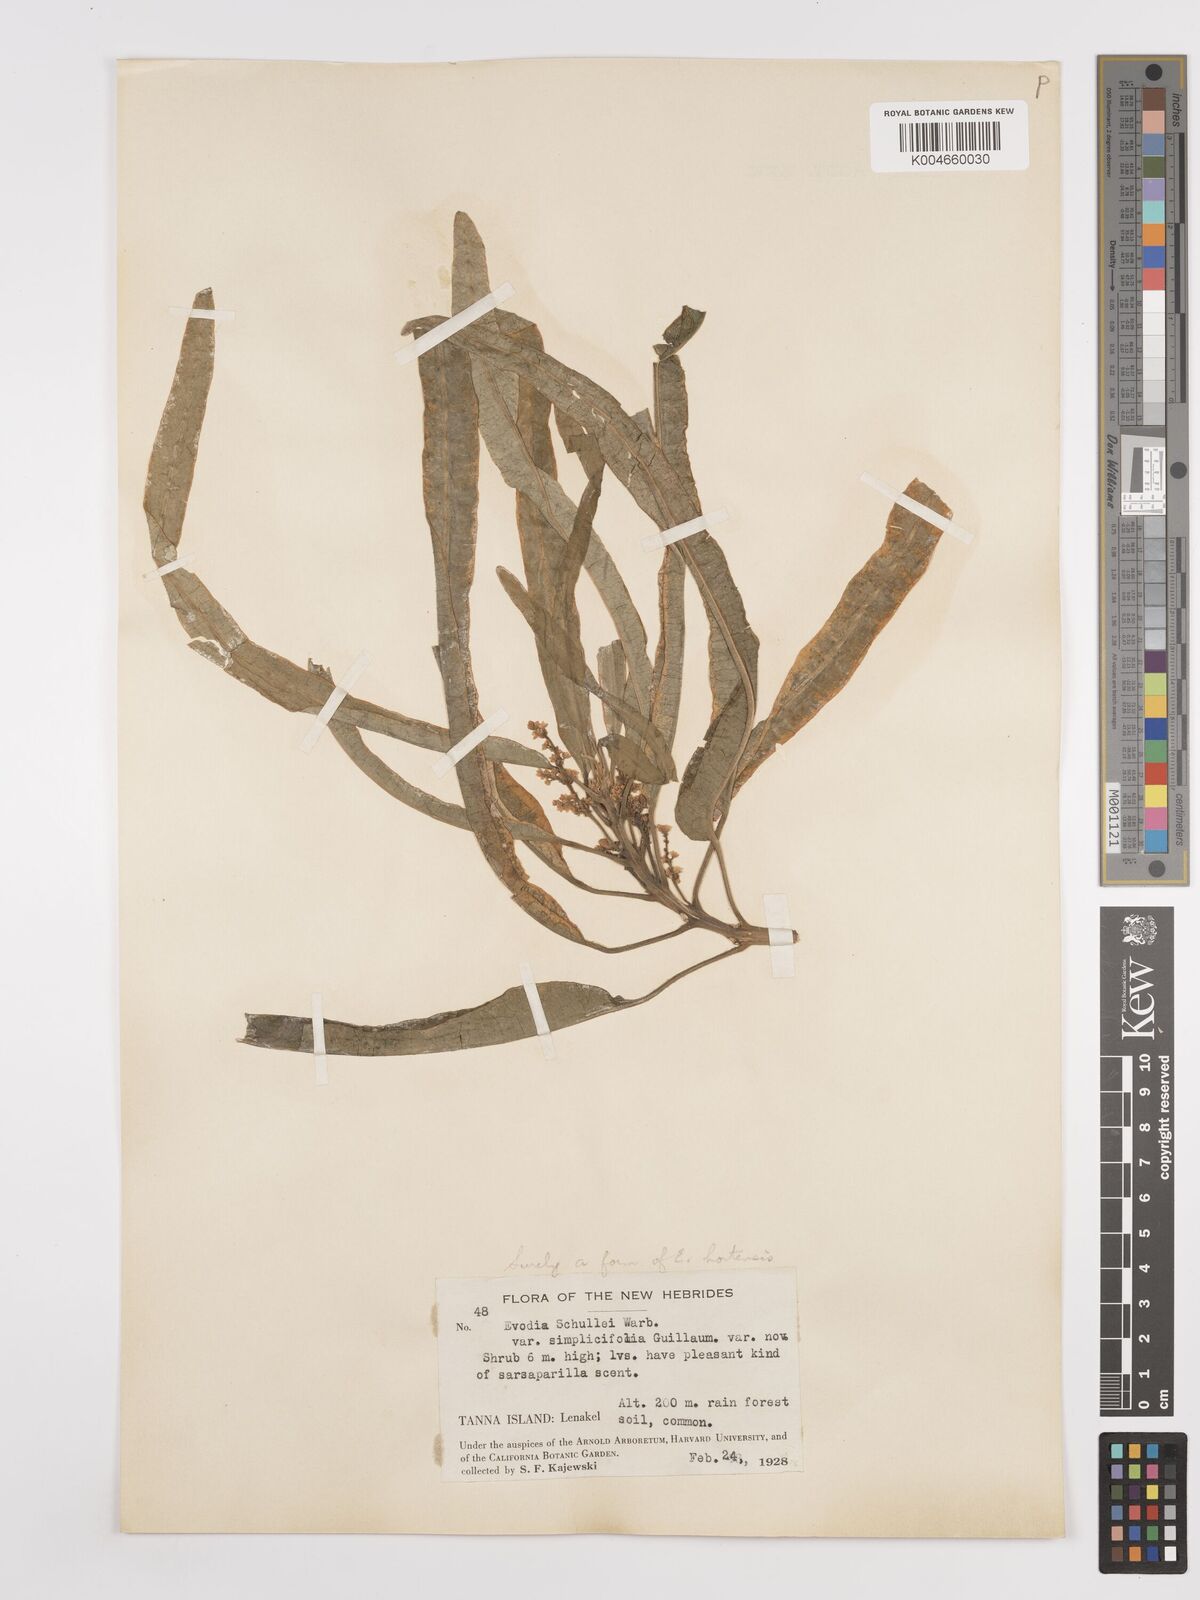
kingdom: Plantae
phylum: Tracheophyta
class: Magnoliopsida
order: Sapindales
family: Rutaceae
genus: Euodia
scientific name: Euodia hortensis
